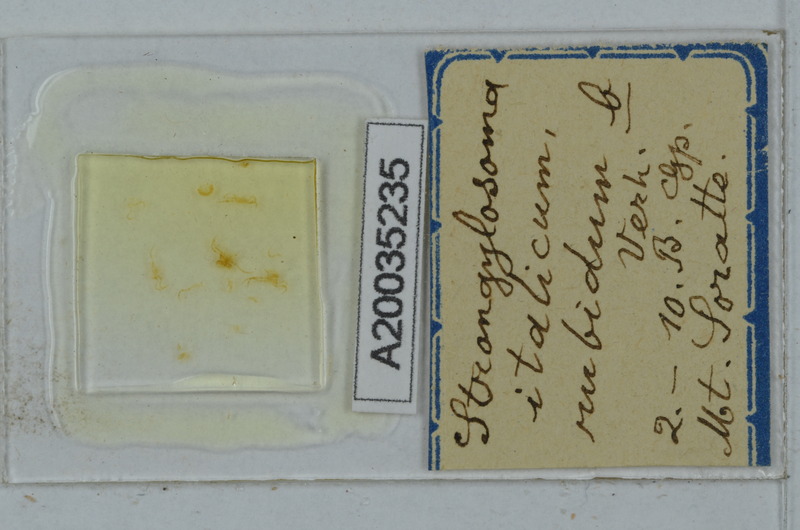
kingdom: Animalia
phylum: Arthropoda
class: Diplopoda
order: Polydesmida
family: Paradoxosomatidae
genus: Strongylosoma
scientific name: Strongylosoma italica
